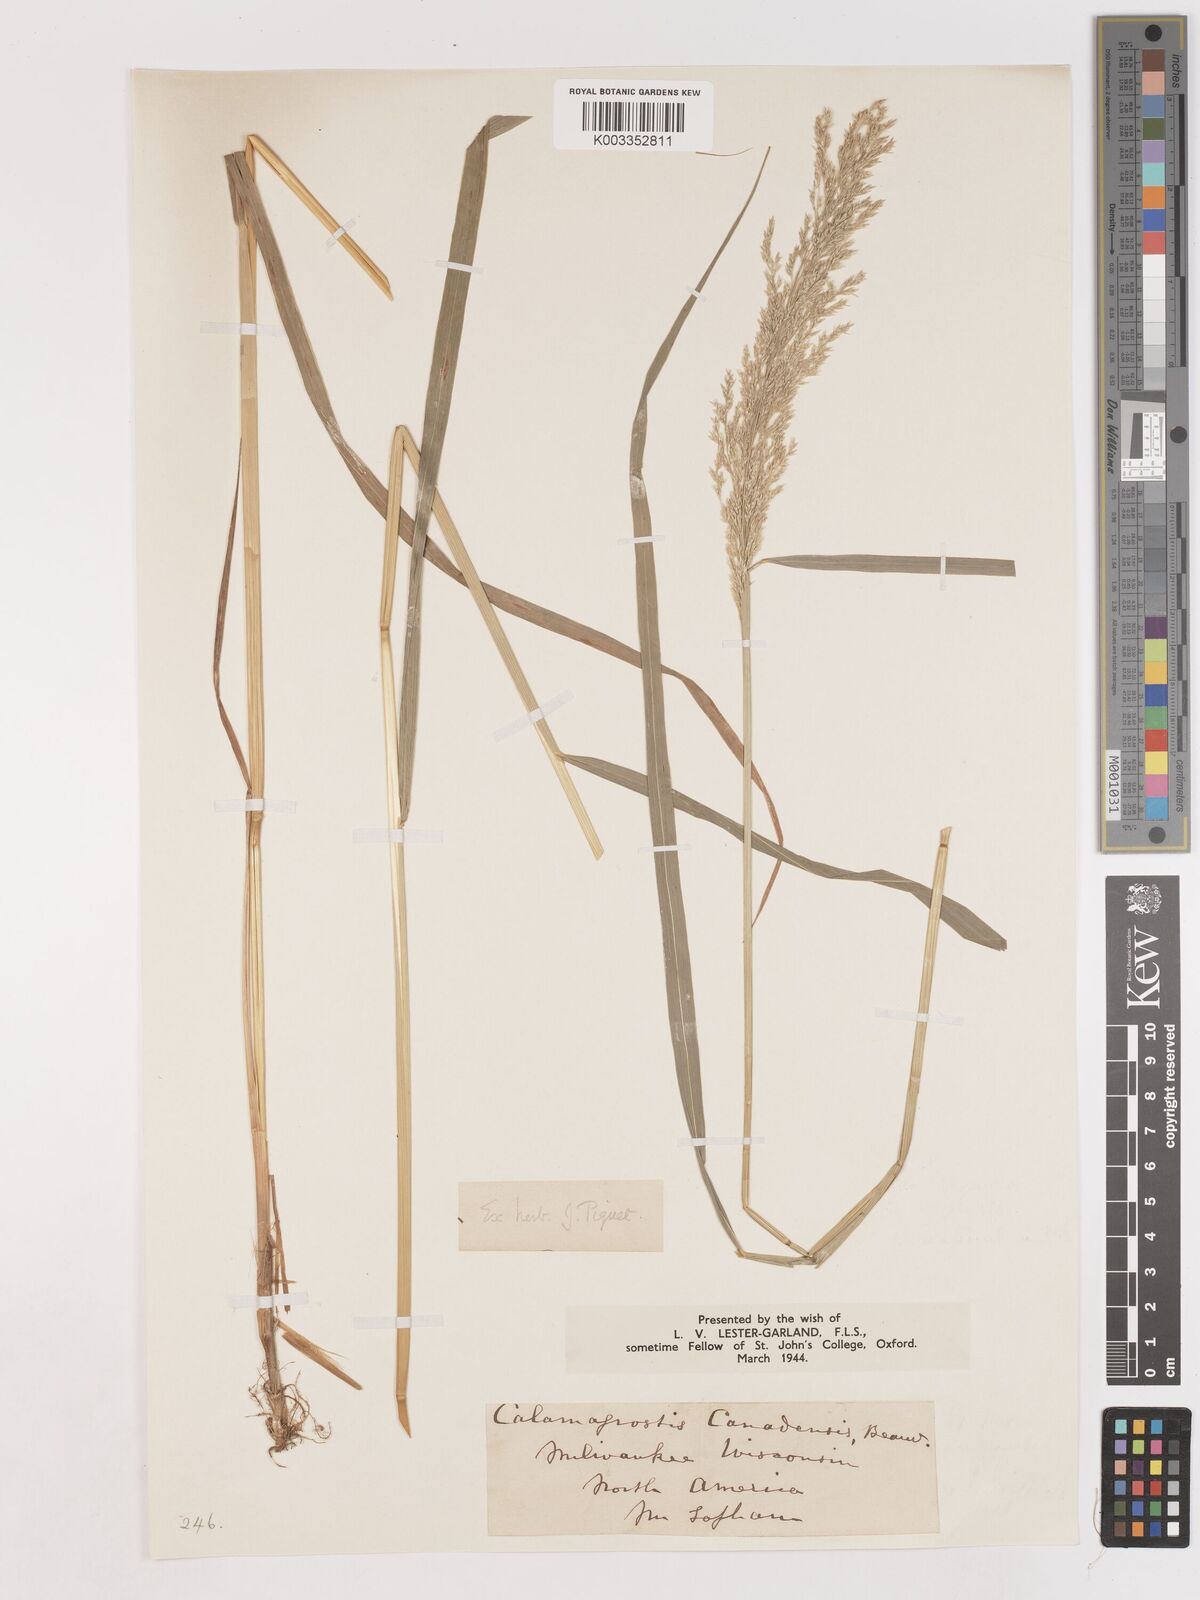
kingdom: Plantae
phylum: Tracheophyta
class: Liliopsida
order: Poales
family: Poaceae
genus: Calamagrostis
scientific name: Calamagrostis canadensis
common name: Canada bluejoint
